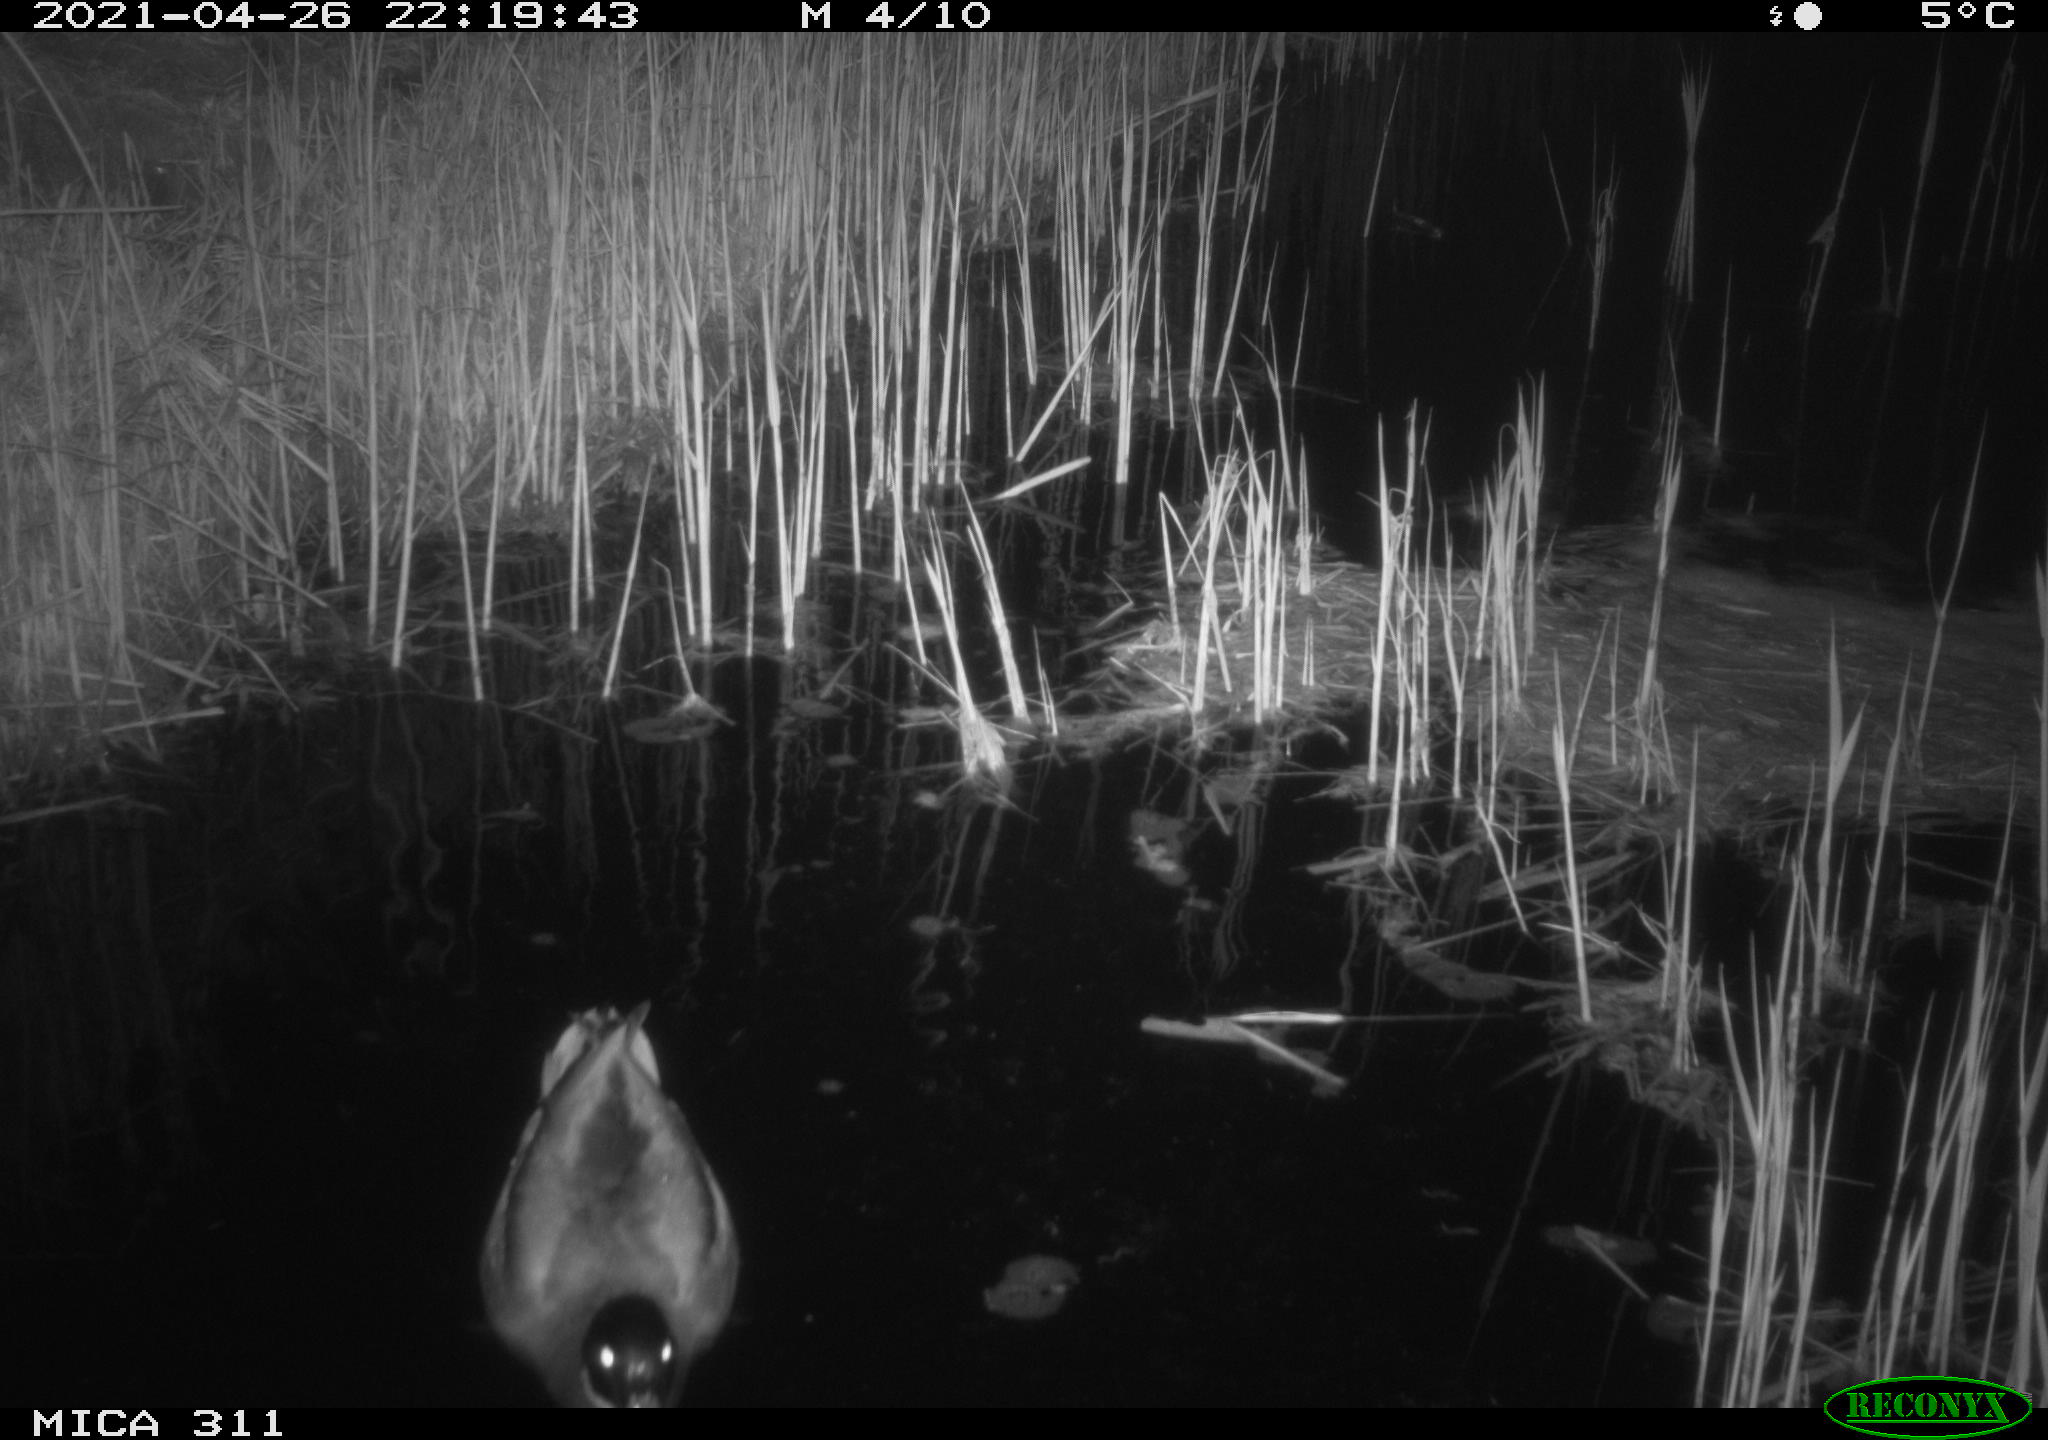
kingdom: Animalia
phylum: Chordata
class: Aves
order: Anseriformes
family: Anatidae
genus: Anas
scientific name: Anas platyrhynchos
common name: Mallard
